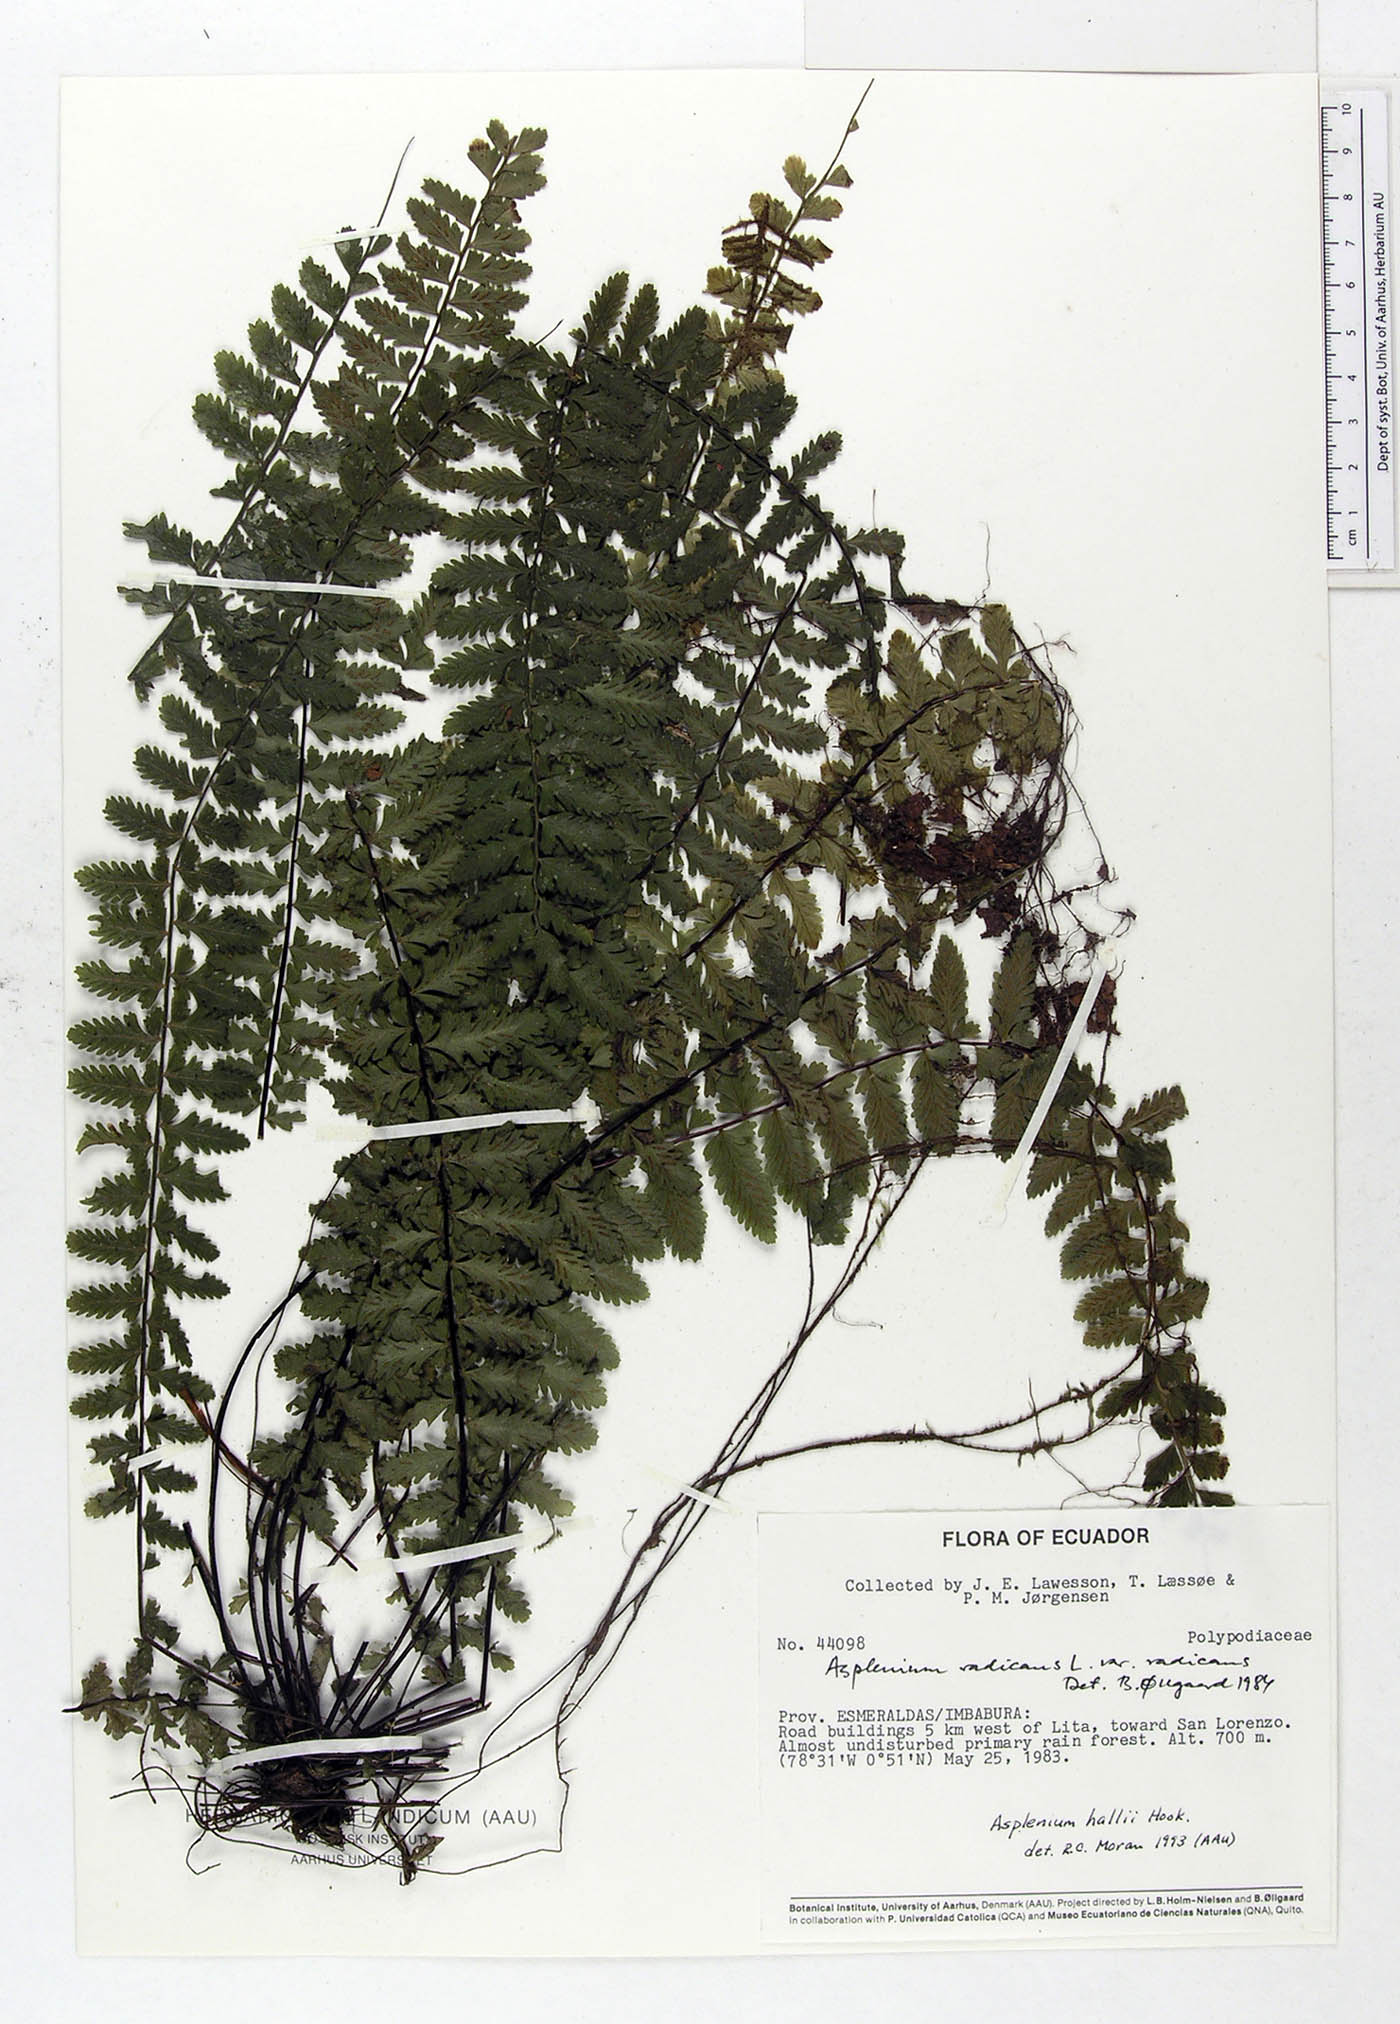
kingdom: Plantae
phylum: Tracheophyta
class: Polypodiopsida
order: Polypodiales
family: Aspleniaceae
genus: Asplenium
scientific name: Asplenium hallii
